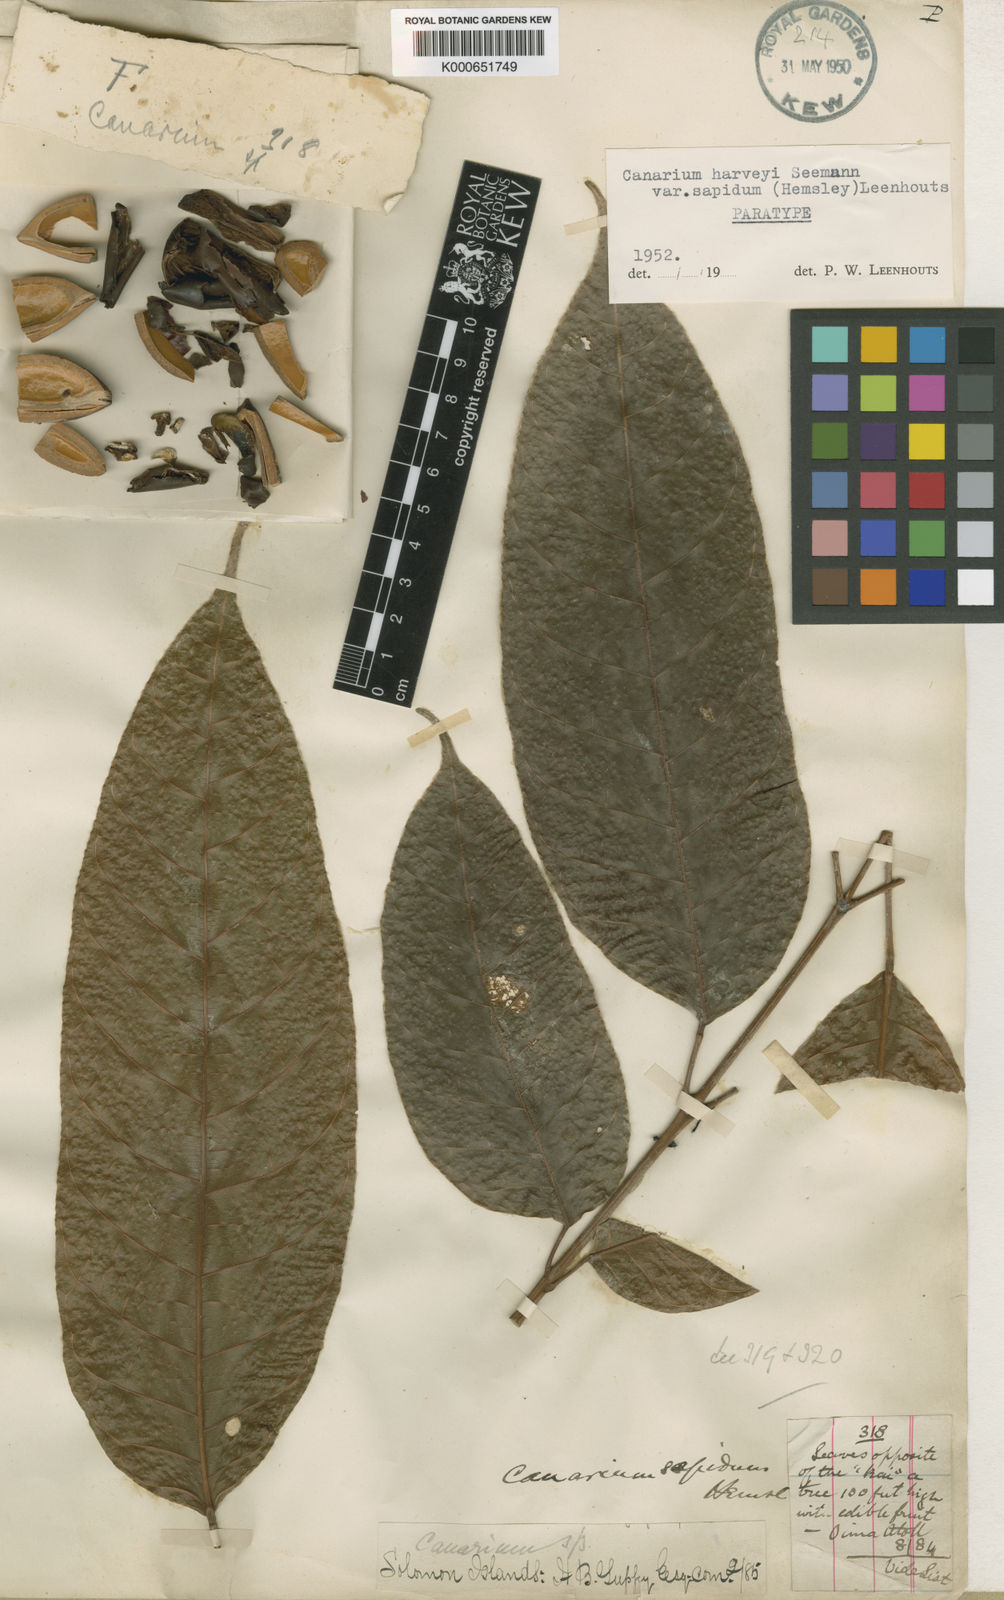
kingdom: Plantae
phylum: Tracheophyta
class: Magnoliopsida
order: Sapindales
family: Burseraceae
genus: Canarium
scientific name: Canarium harveyi
